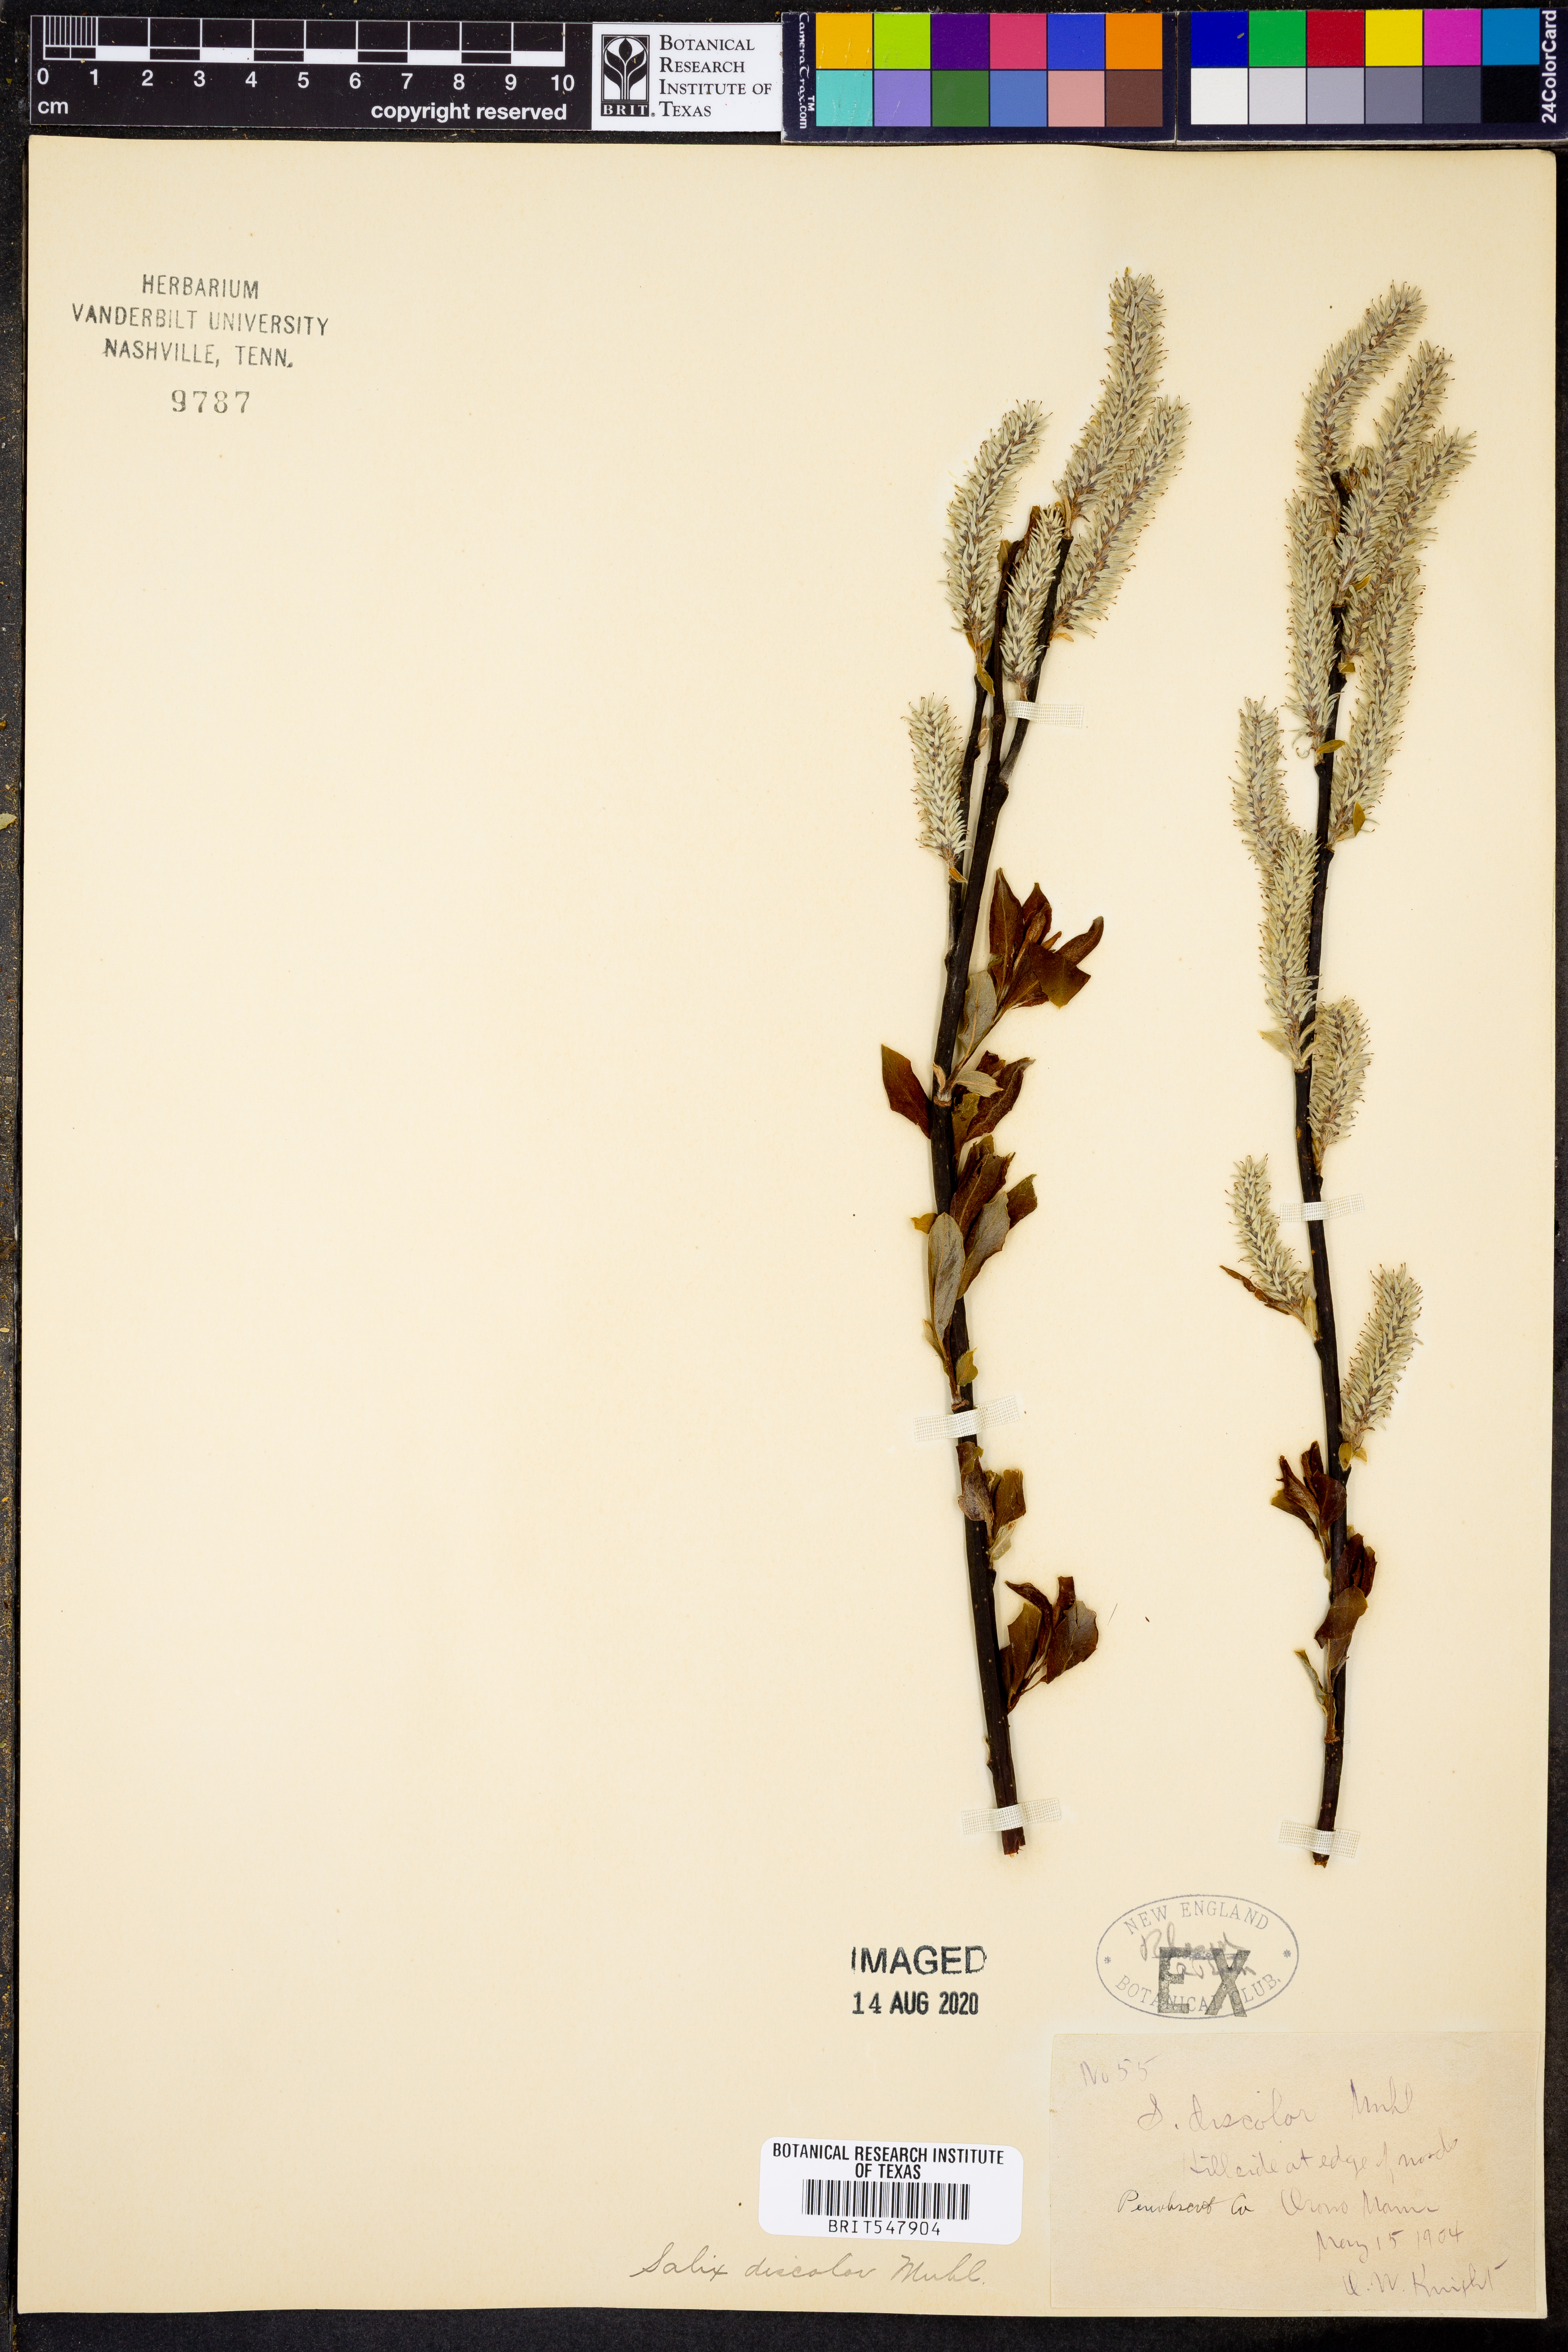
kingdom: Plantae
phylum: Tracheophyta
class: Magnoliopsida
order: Malpighiales
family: Salicaceae
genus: Salix
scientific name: Salix discolor
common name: Glaucous willow
